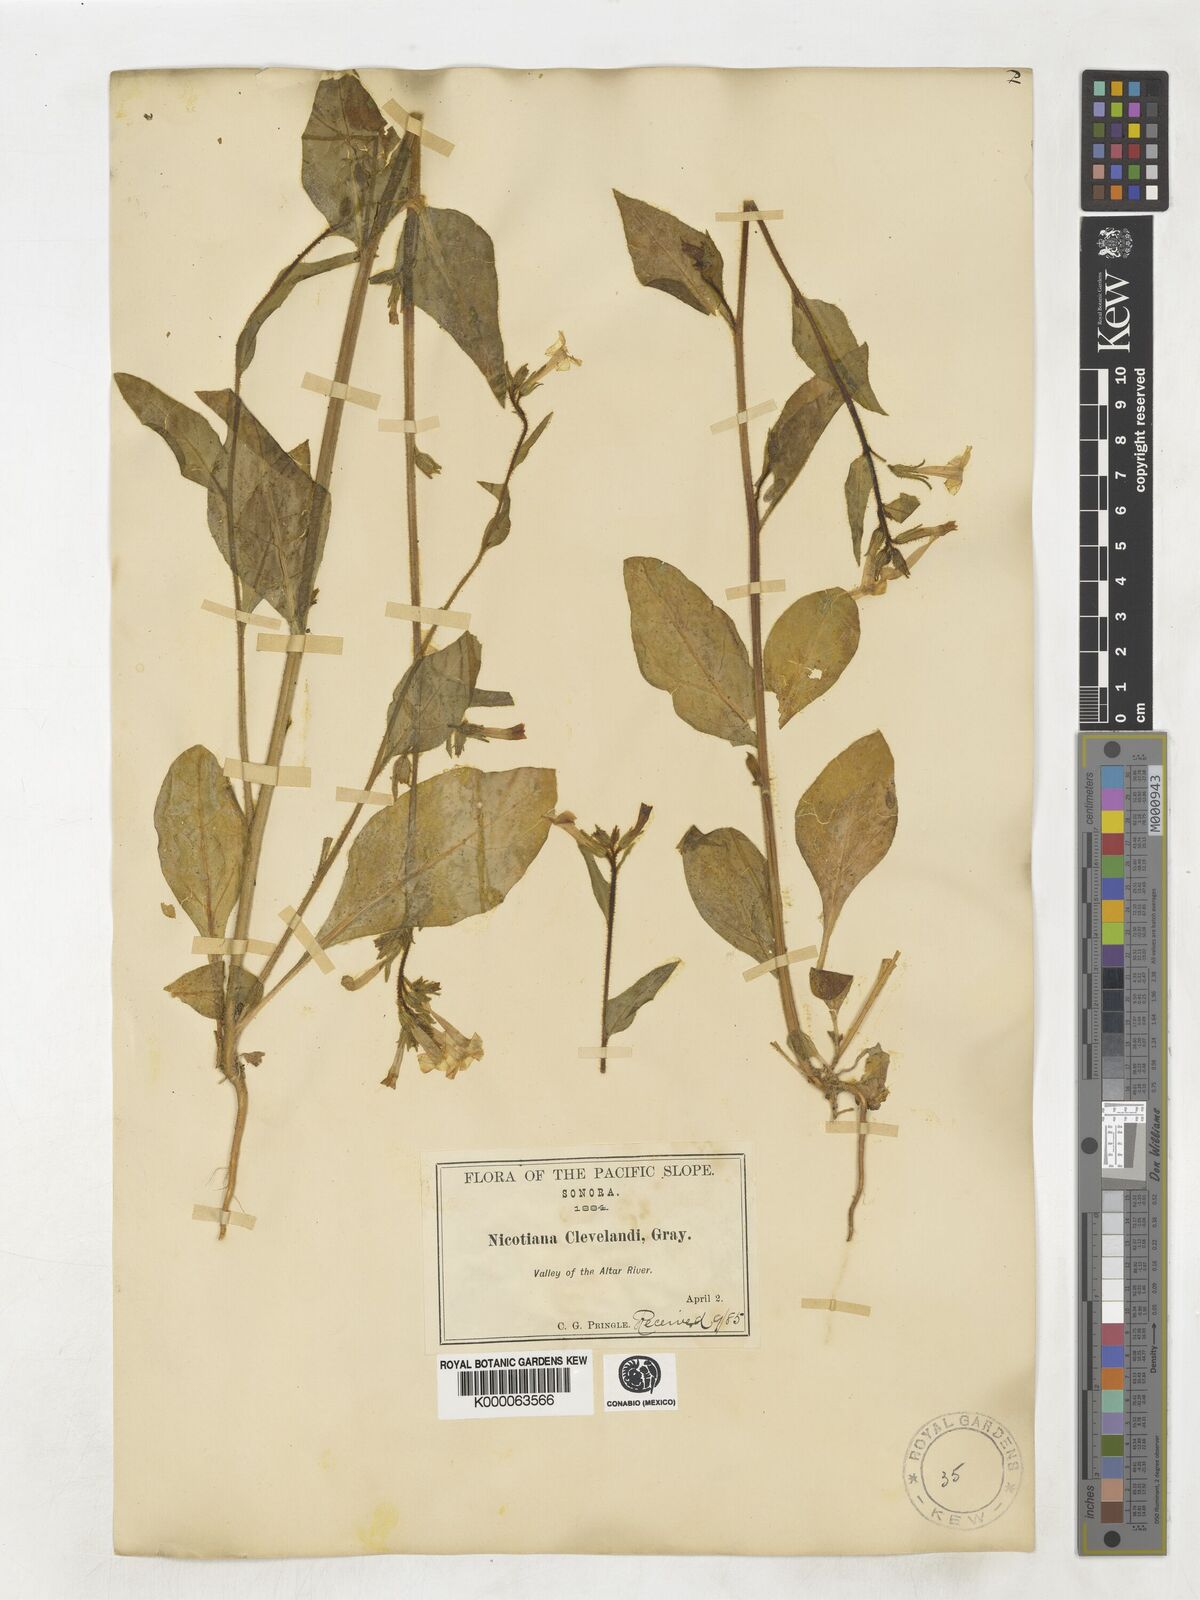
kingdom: Plantae
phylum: Tracheophyta
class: Magnoliopsida
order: Solanales
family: Solanaceae
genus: Nicotiana
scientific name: Nicotiana clevelandii
